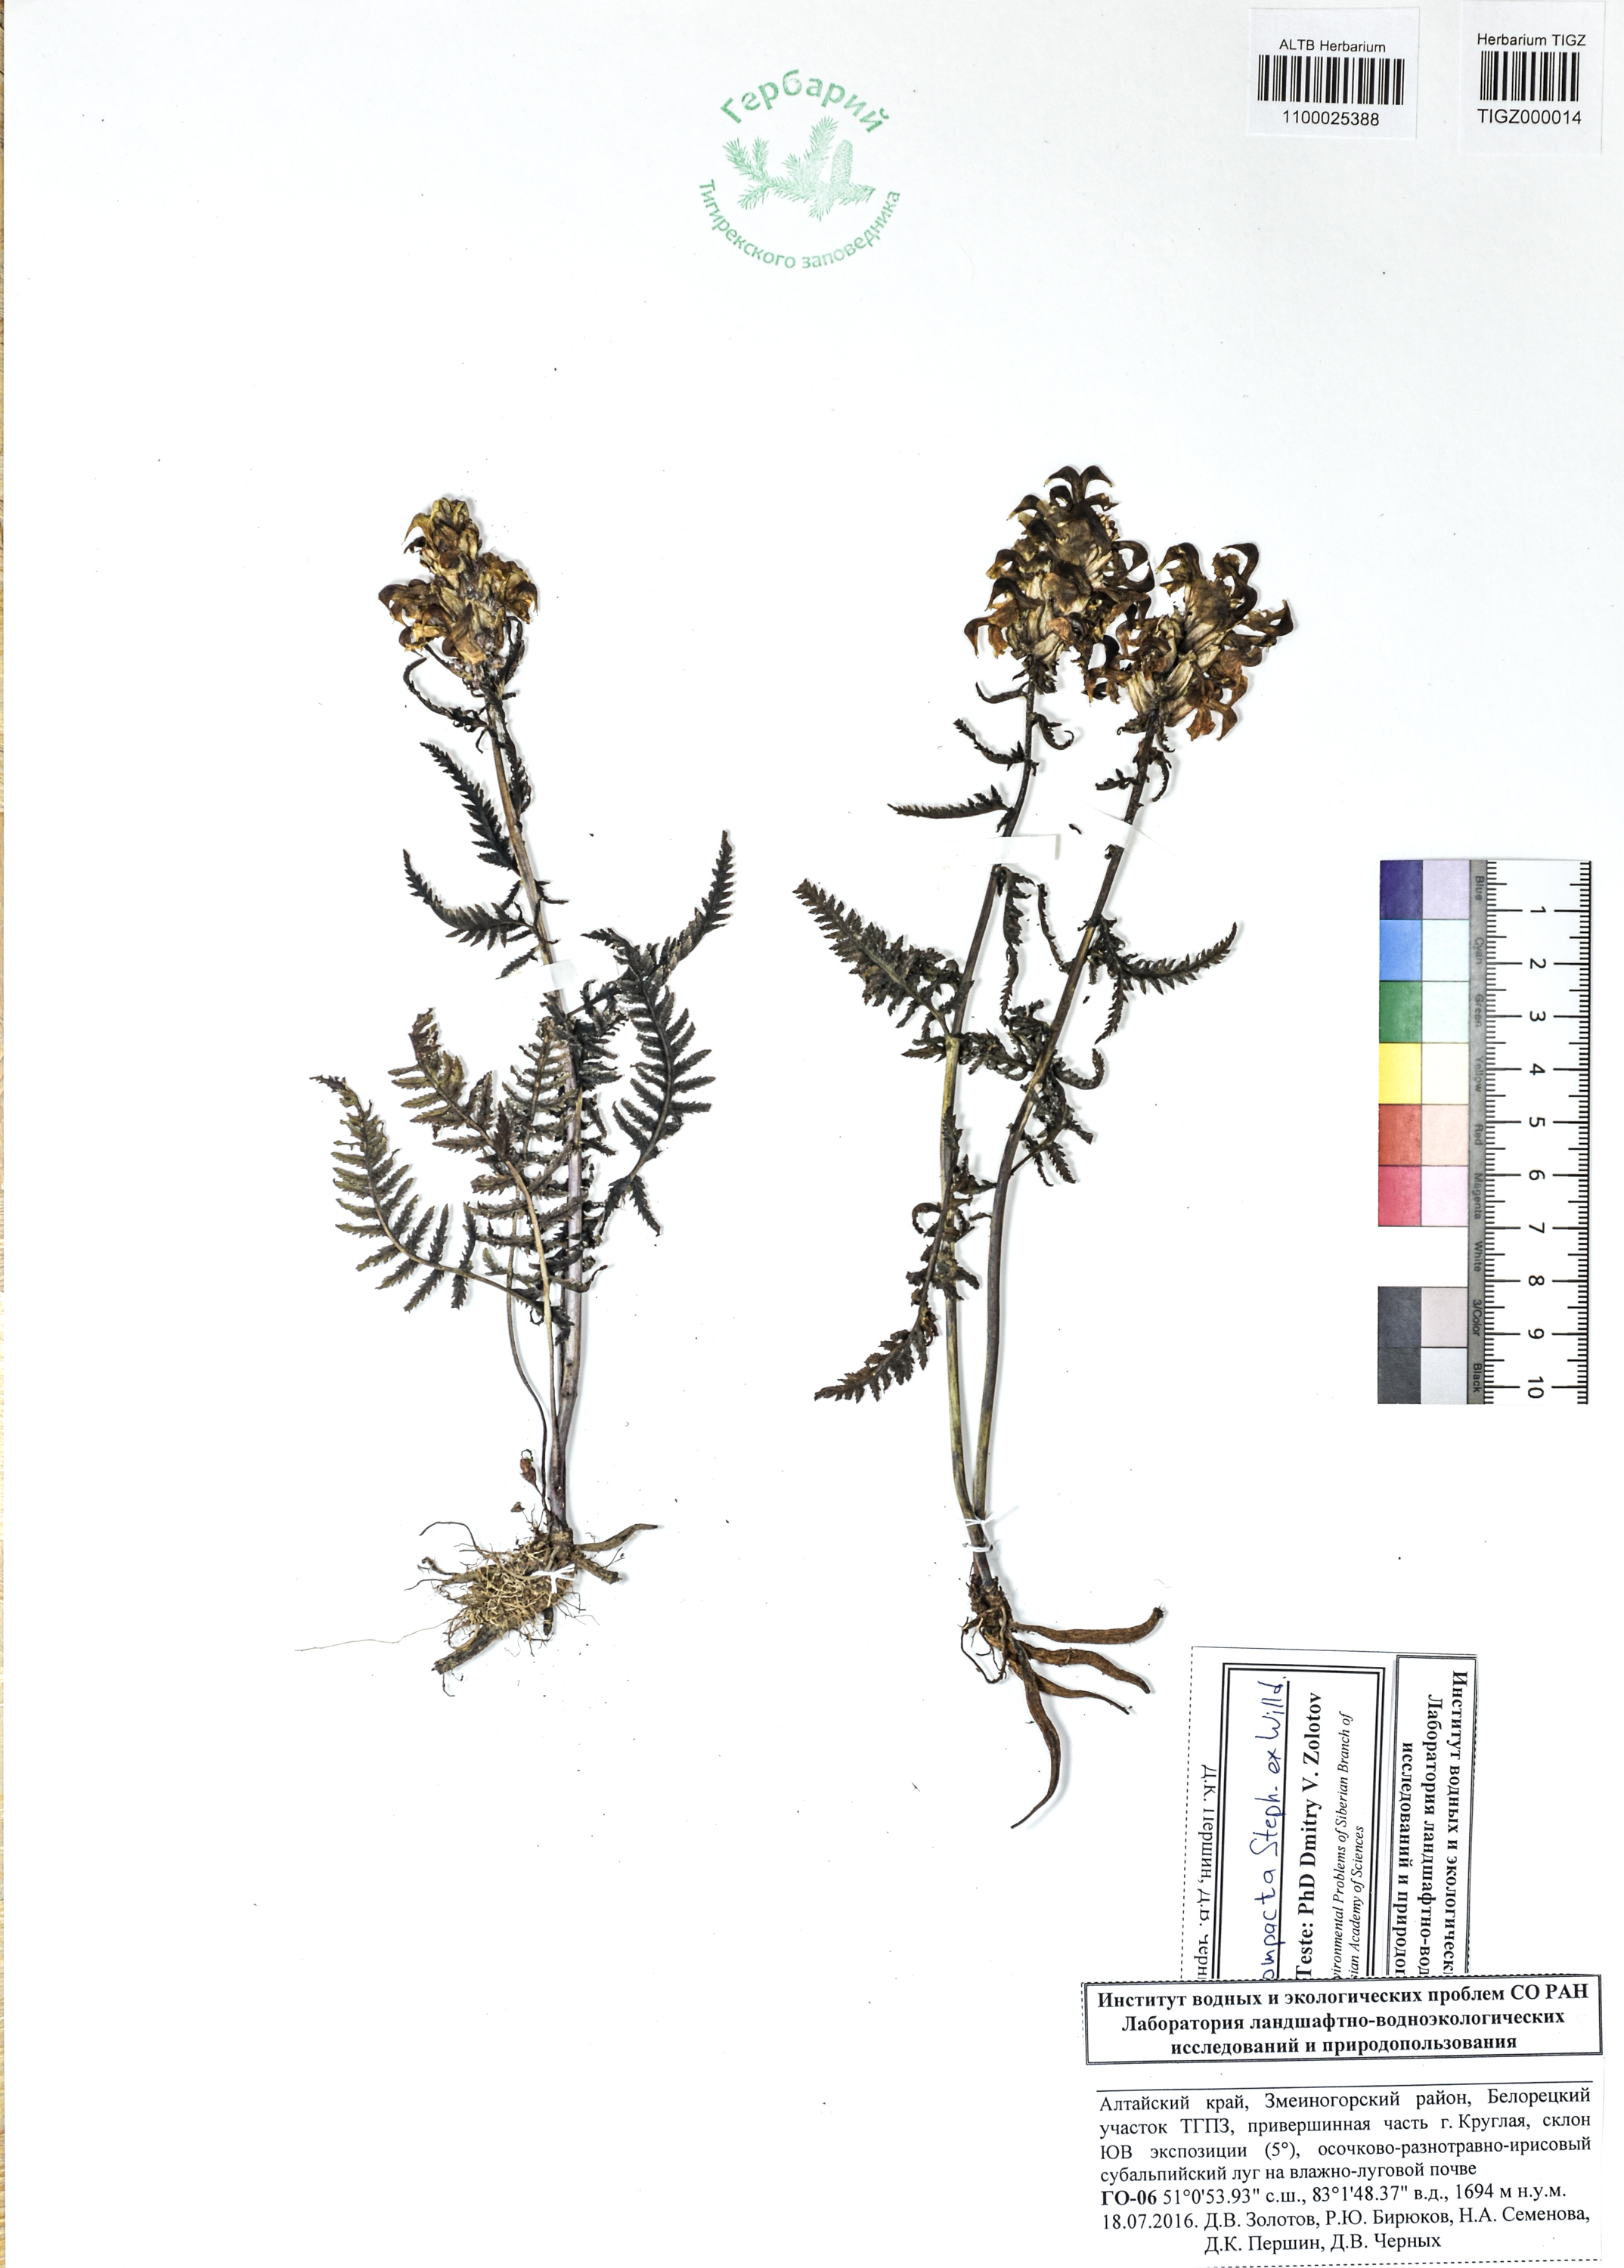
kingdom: Plantae
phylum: Tracheophyta
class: Magnoliopsida
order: Lamiales
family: Orobanchaceae
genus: Pedicularis
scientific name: Pedicularis compacta
